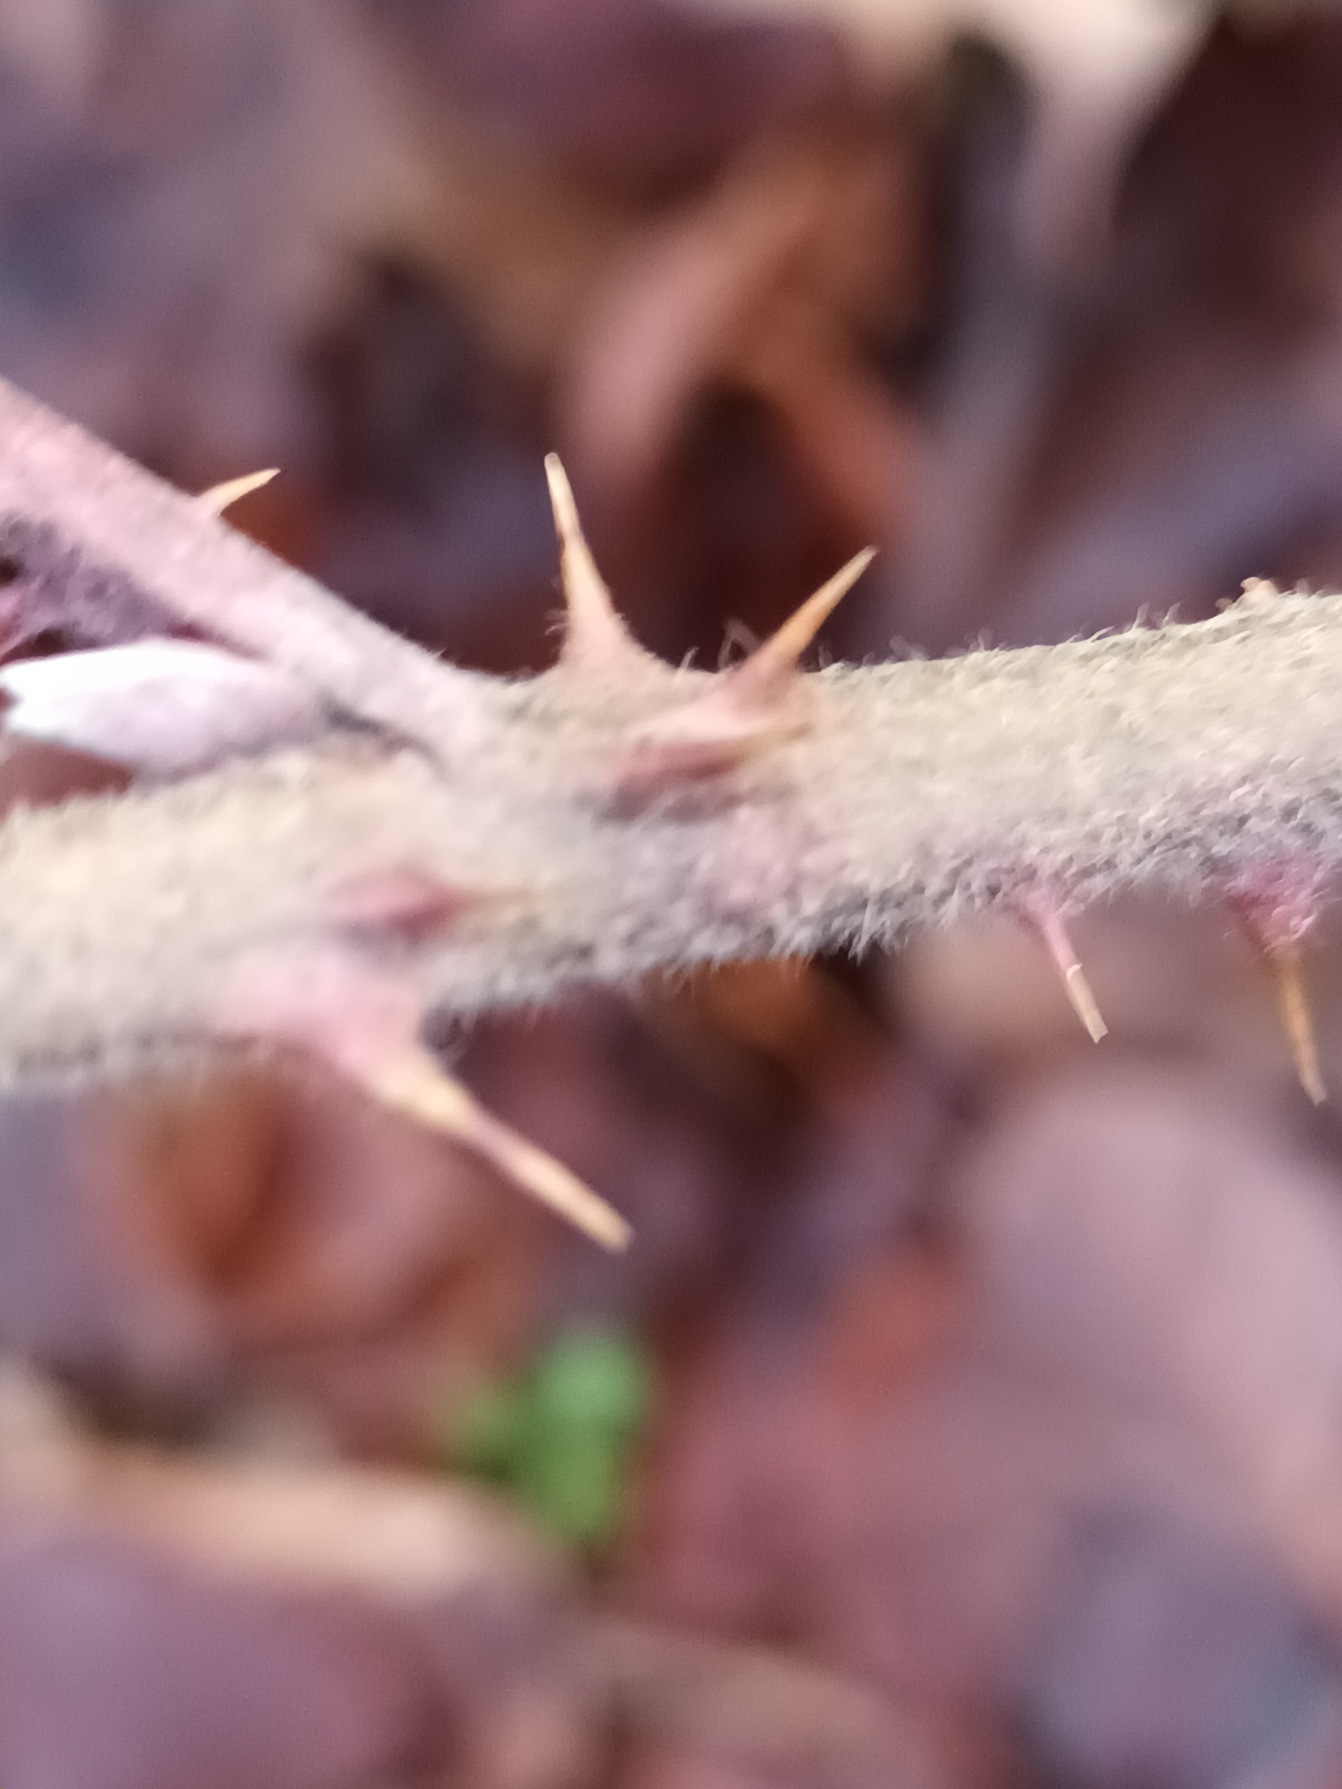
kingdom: Plantae
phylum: Tracheophyta
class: Magnoliopsida
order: Rosales
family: Rosaceae
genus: Rubus
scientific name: Rubus radula
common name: Rasperu brombær
